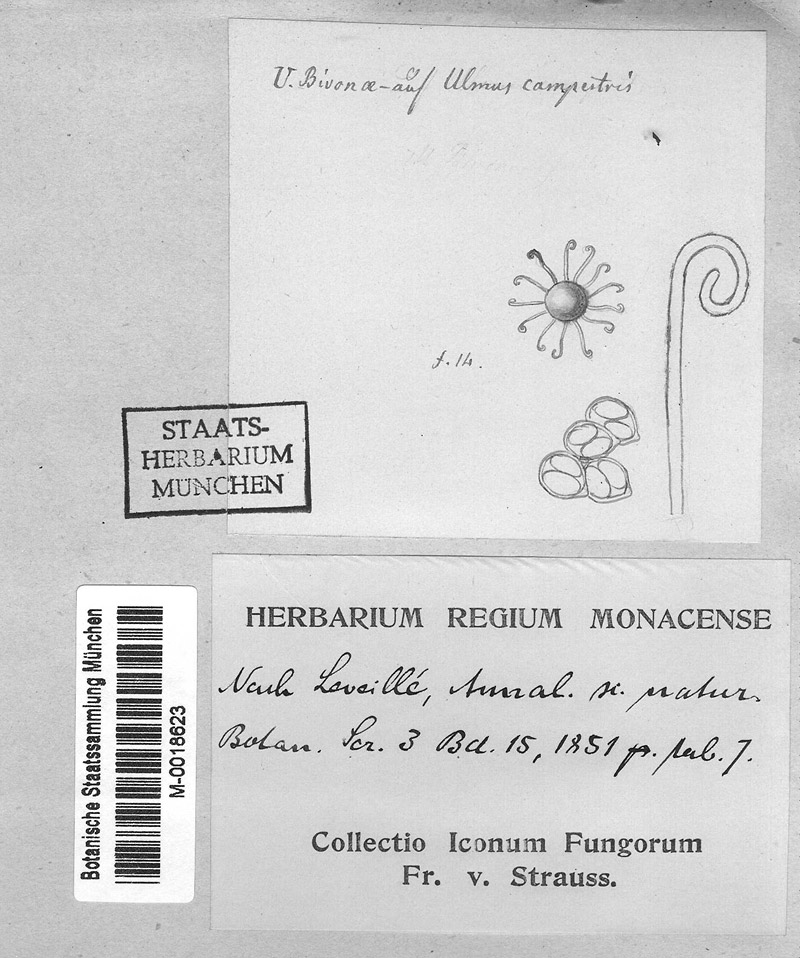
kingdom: Fungi
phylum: Ascomycota
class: Leotiomycetes
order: Helotiales
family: Erysiphaceae
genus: Erysiphe
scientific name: Erysiphe clandestina
